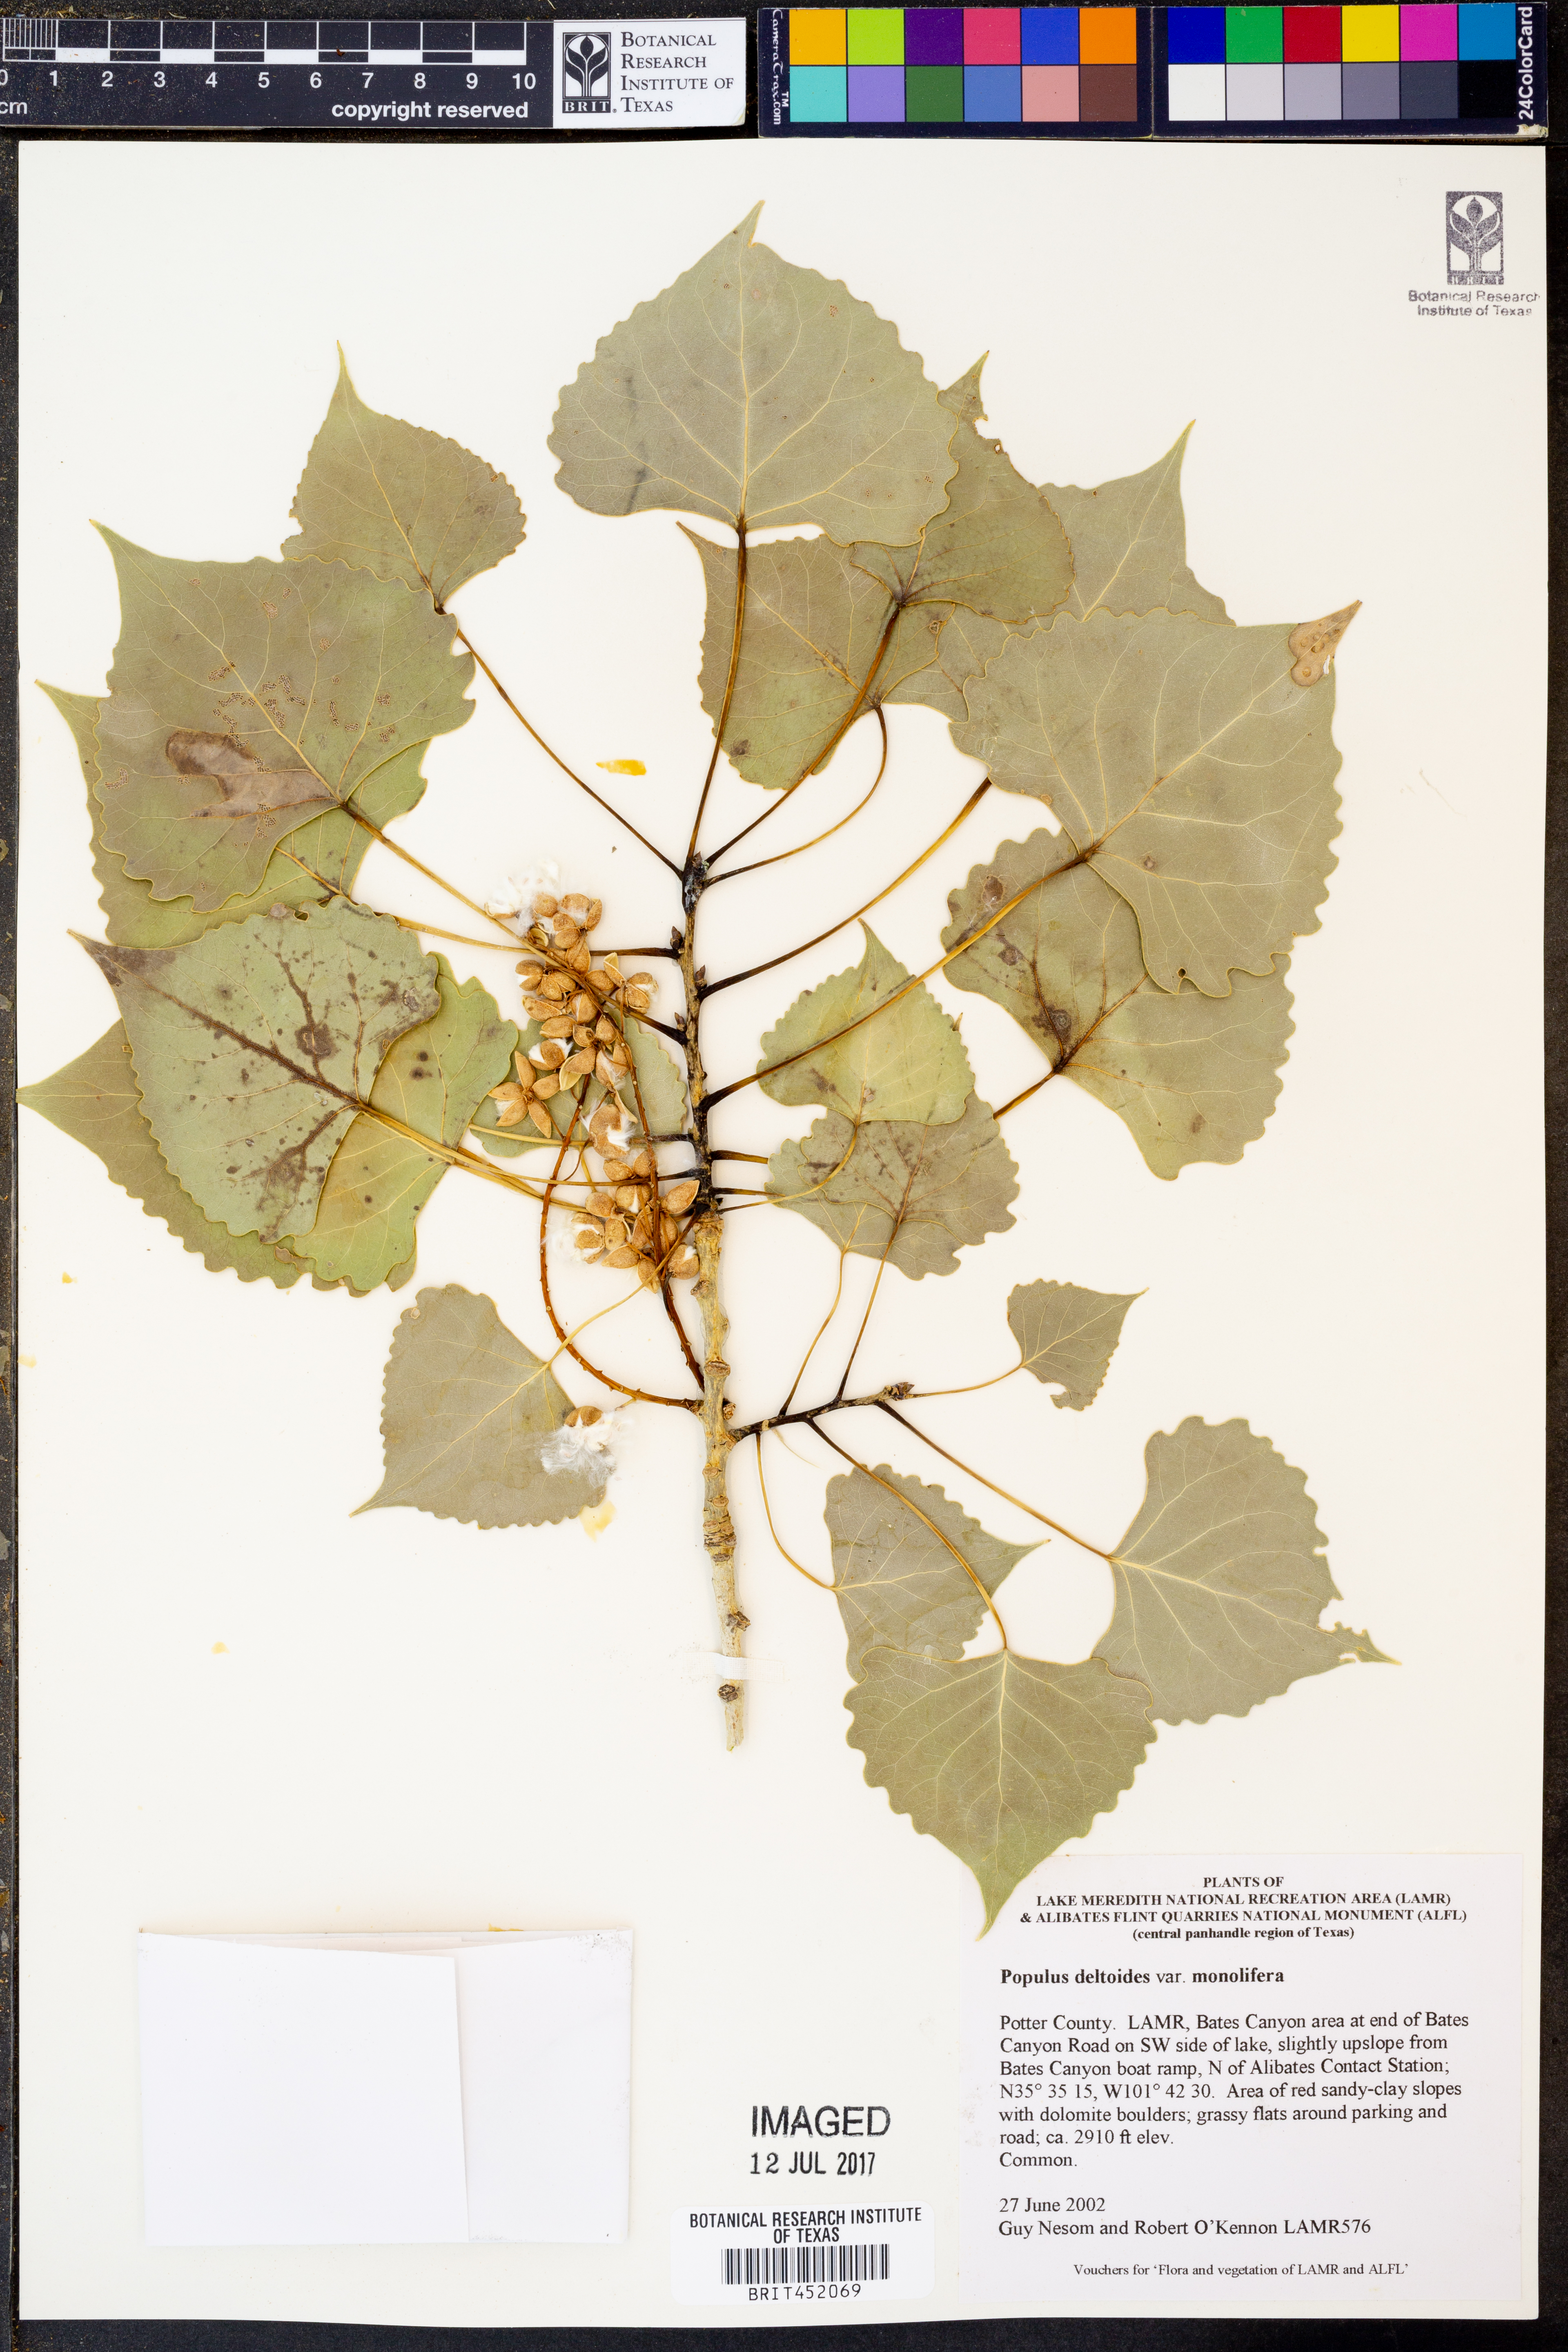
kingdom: Plantae
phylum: Tracheophyta
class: Magnoliopsida
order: Malpighiales
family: Salicaceae
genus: Populus
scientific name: Populus deltoides
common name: Eastern cottonwood
